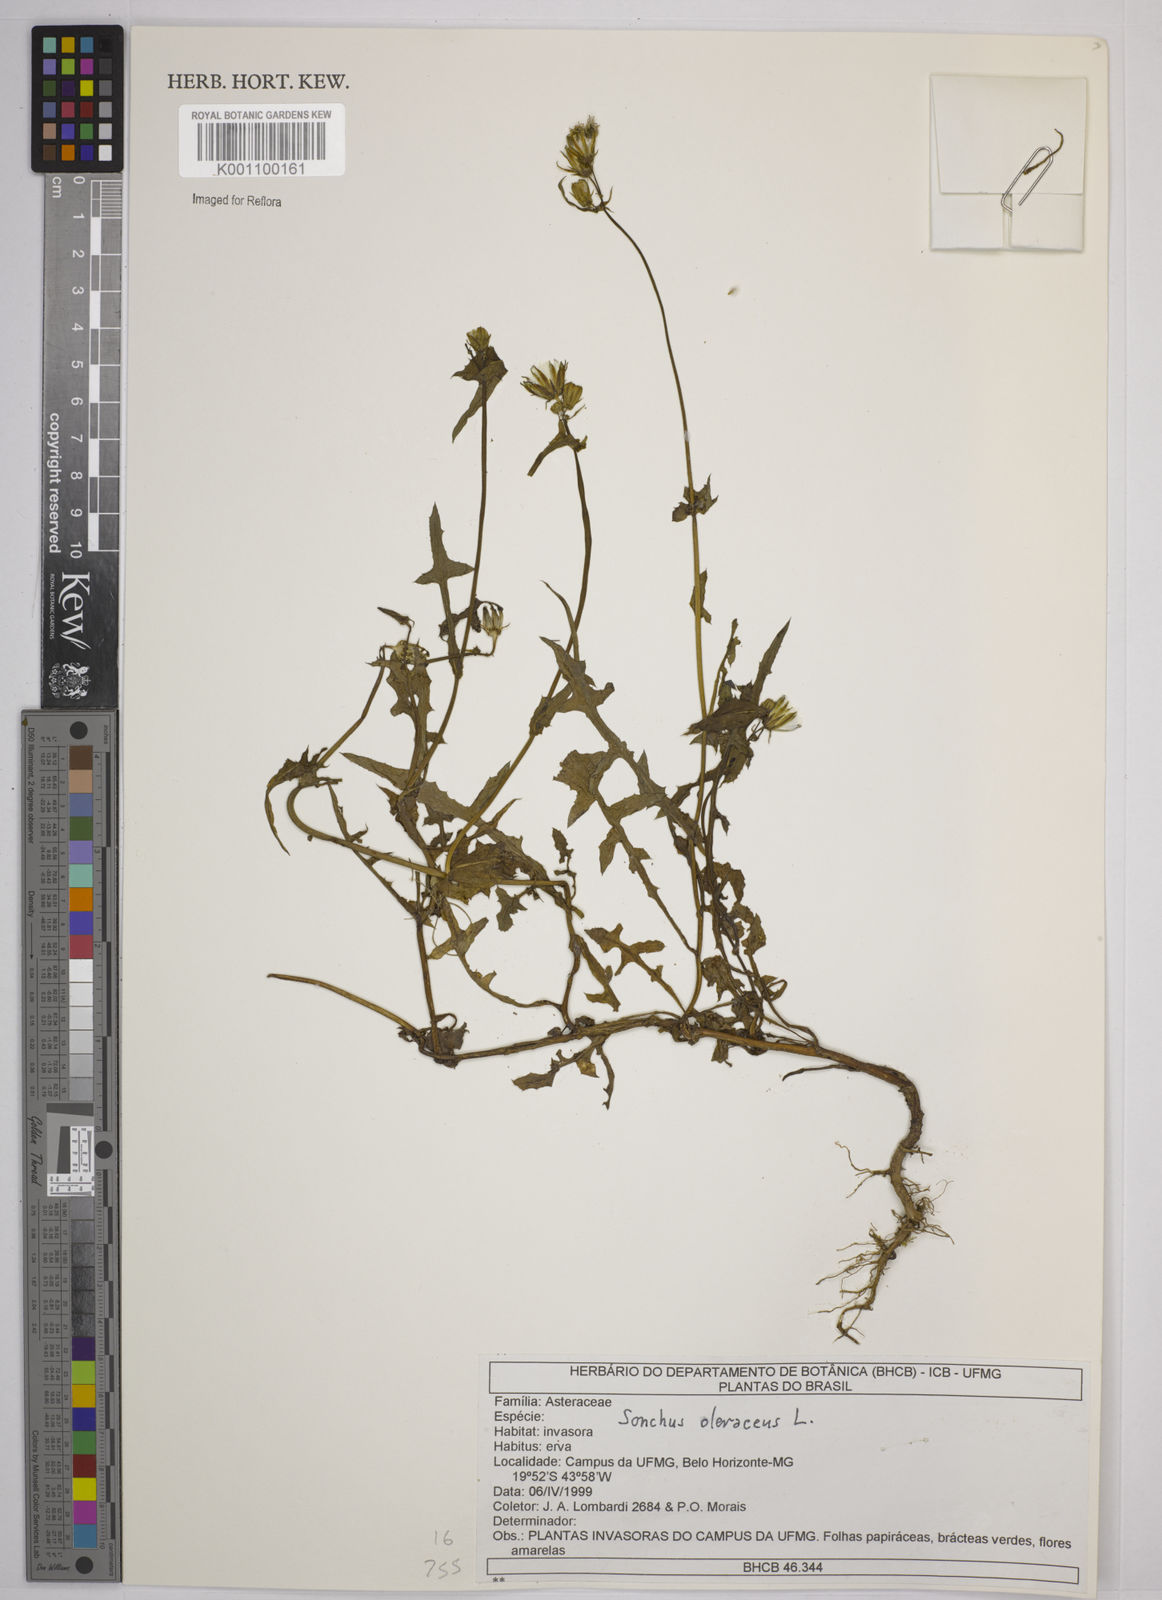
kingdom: Plantae
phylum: Tracheophyta
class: Magnoliopsida
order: Asterales
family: Asteraceae
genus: Sonchus
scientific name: Sonchus asper
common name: Prickly sow-thistle
